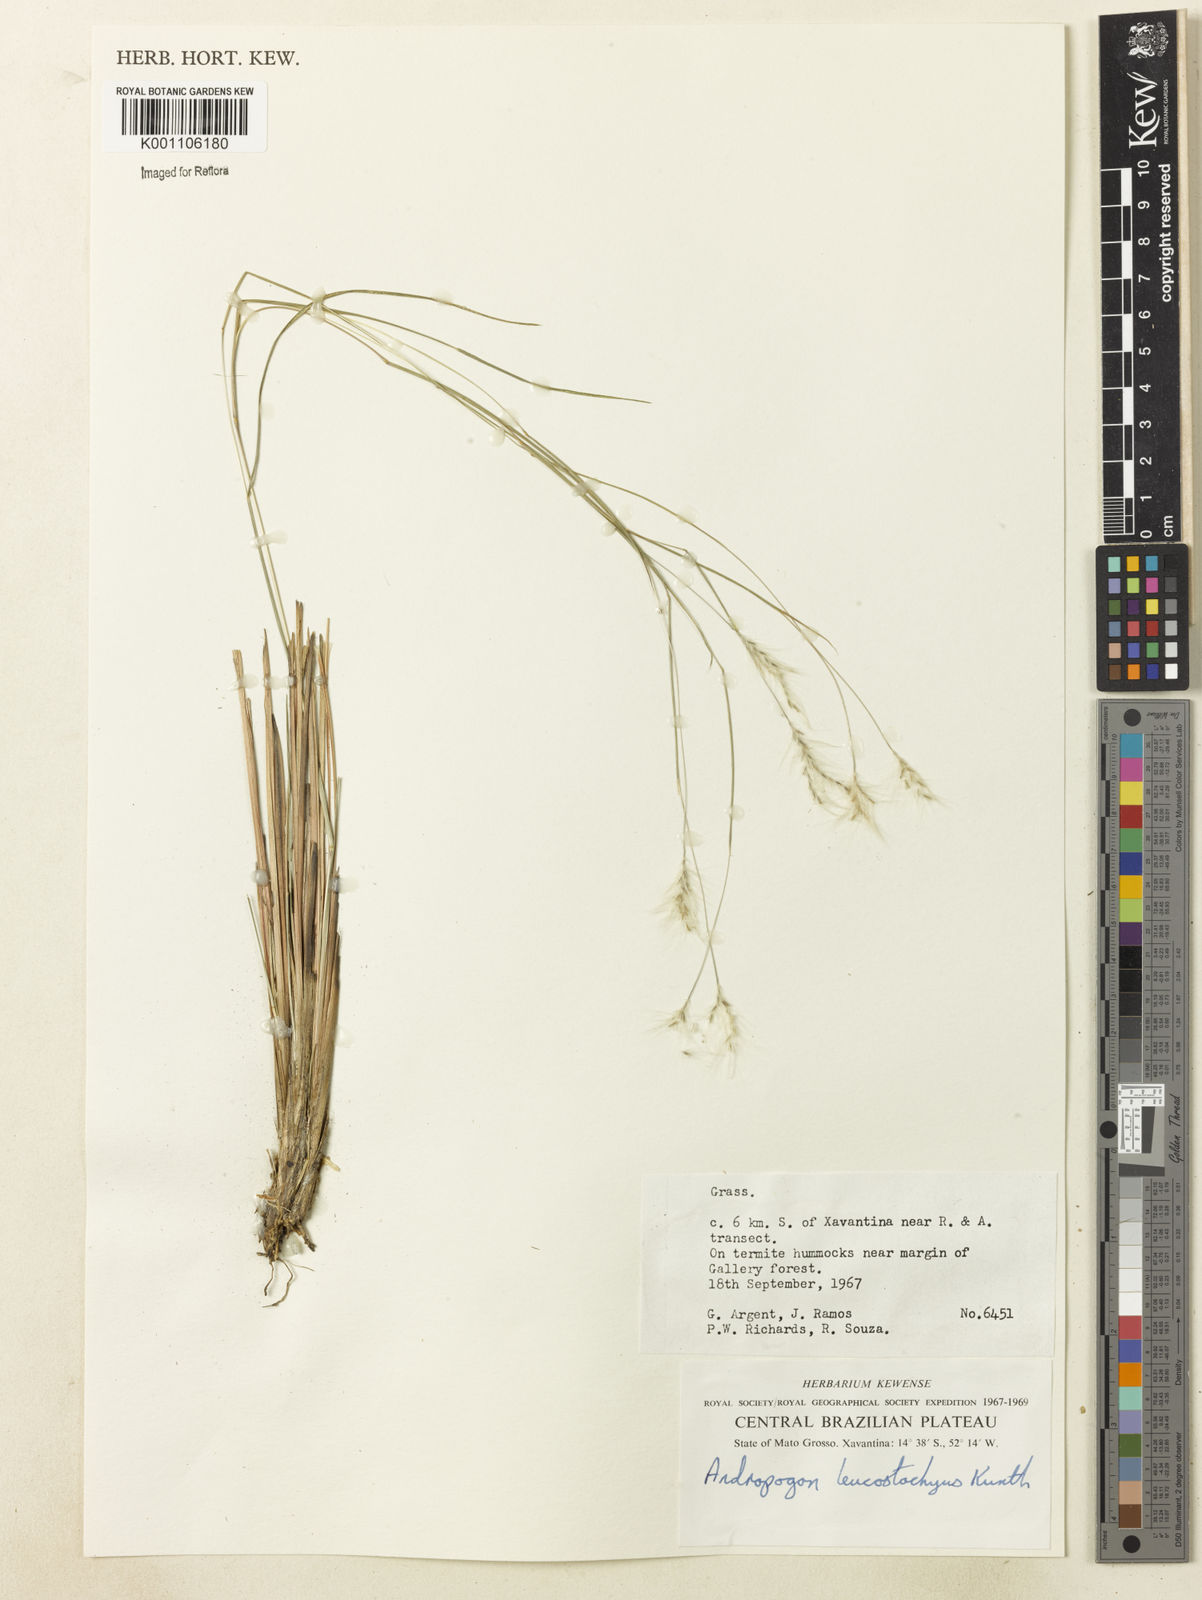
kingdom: Plantae
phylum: Tracheophyta
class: Liliopsida
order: Poales
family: Poaceae
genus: Andropogon
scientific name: Andropogon leucostachyus
